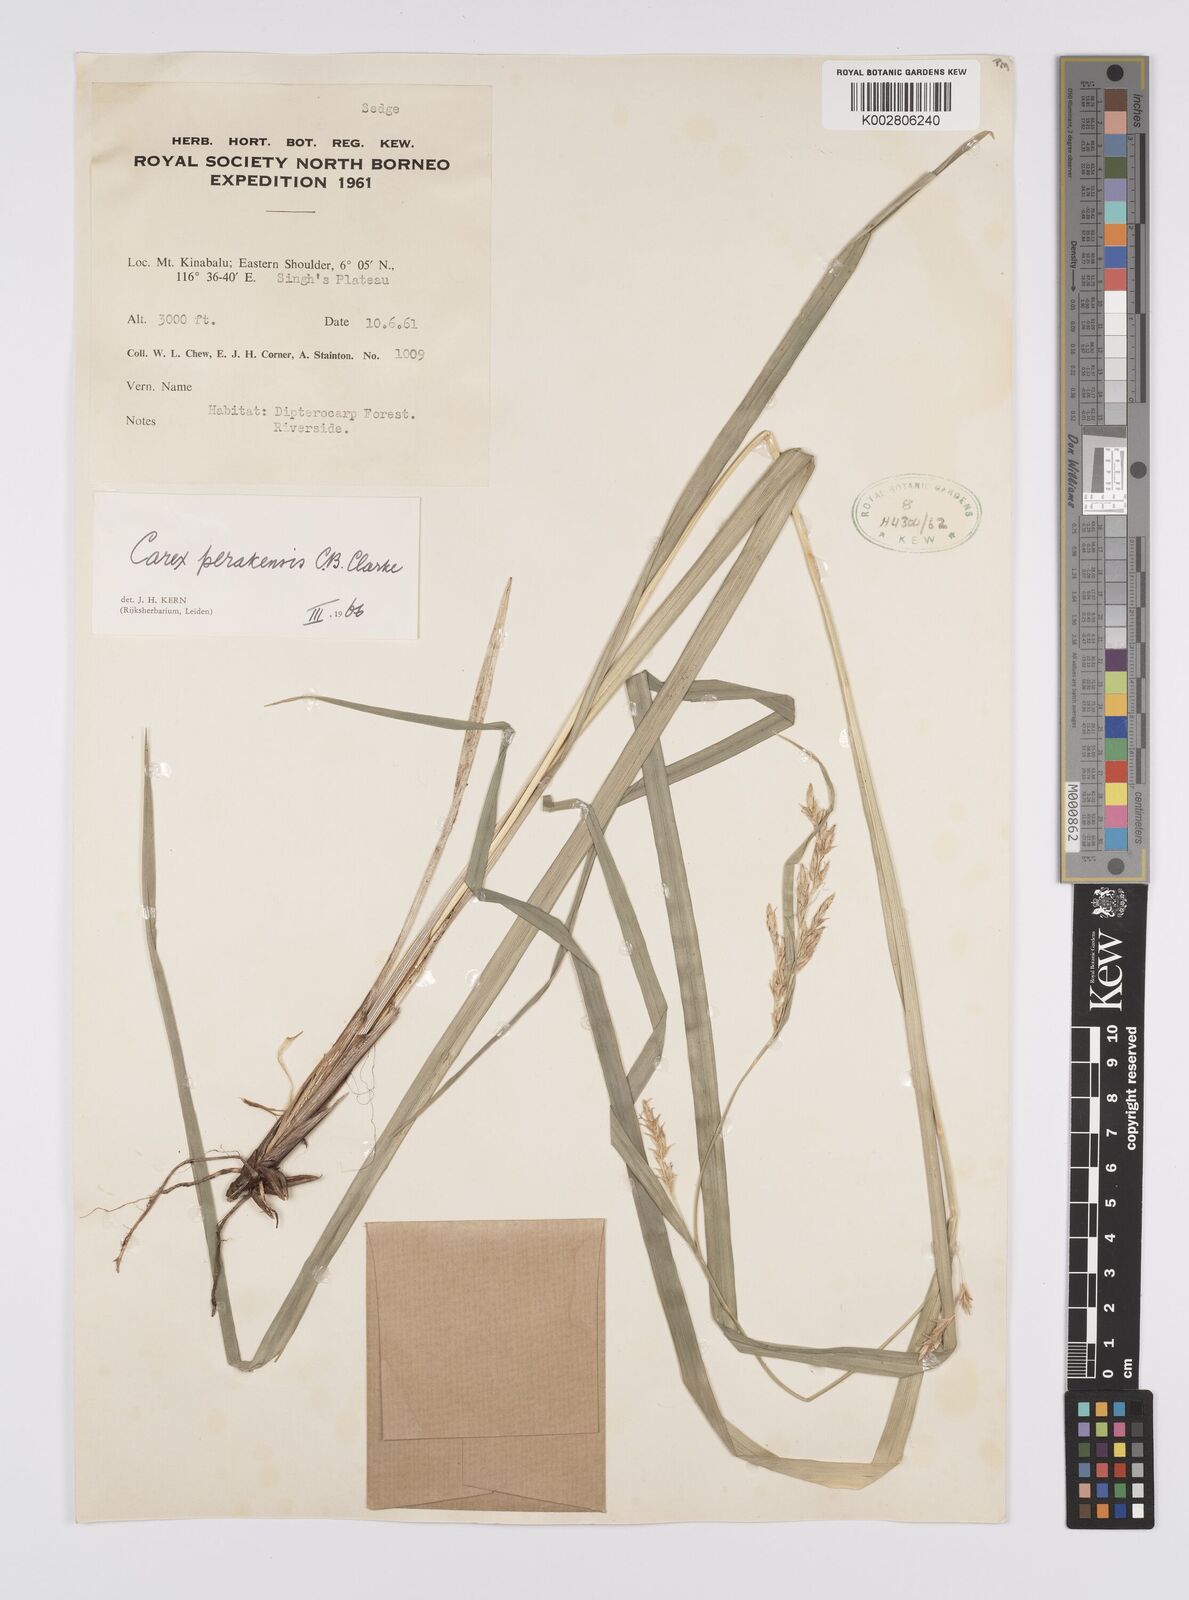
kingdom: Plantae
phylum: Tracheophyta
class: Liliopsida
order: Poales
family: Cyperaceae
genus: Carex
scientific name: Carex perakensis
